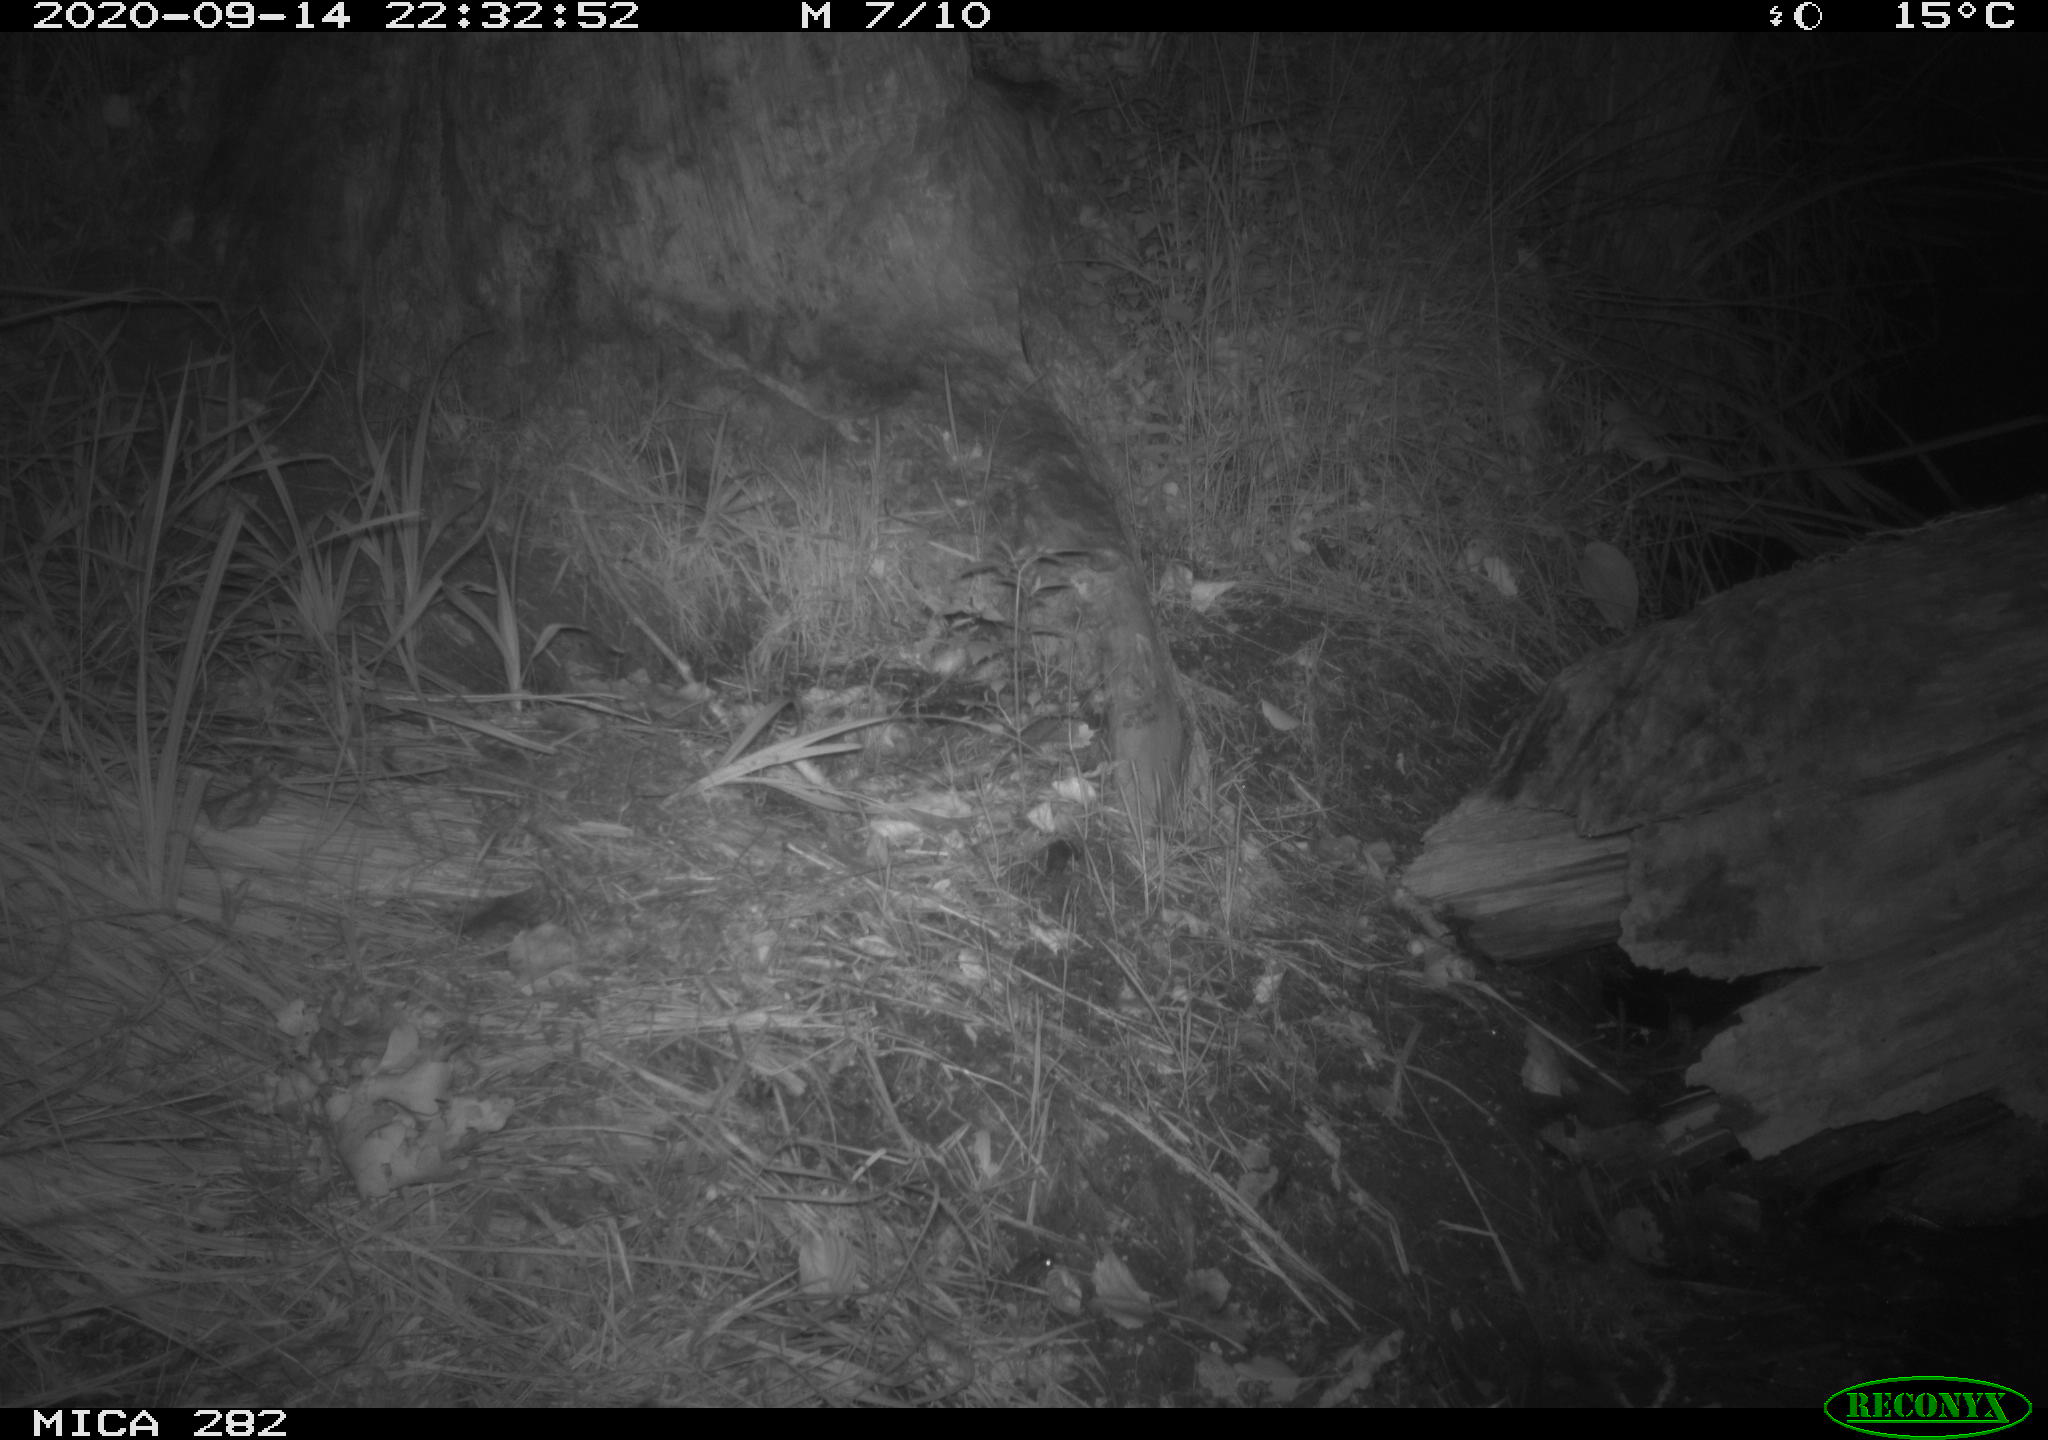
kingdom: Animalia
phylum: Chordata
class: Mammalia
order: Carnivora
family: Mustelidae
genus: Martes
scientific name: Martes foina
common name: Beech marten
